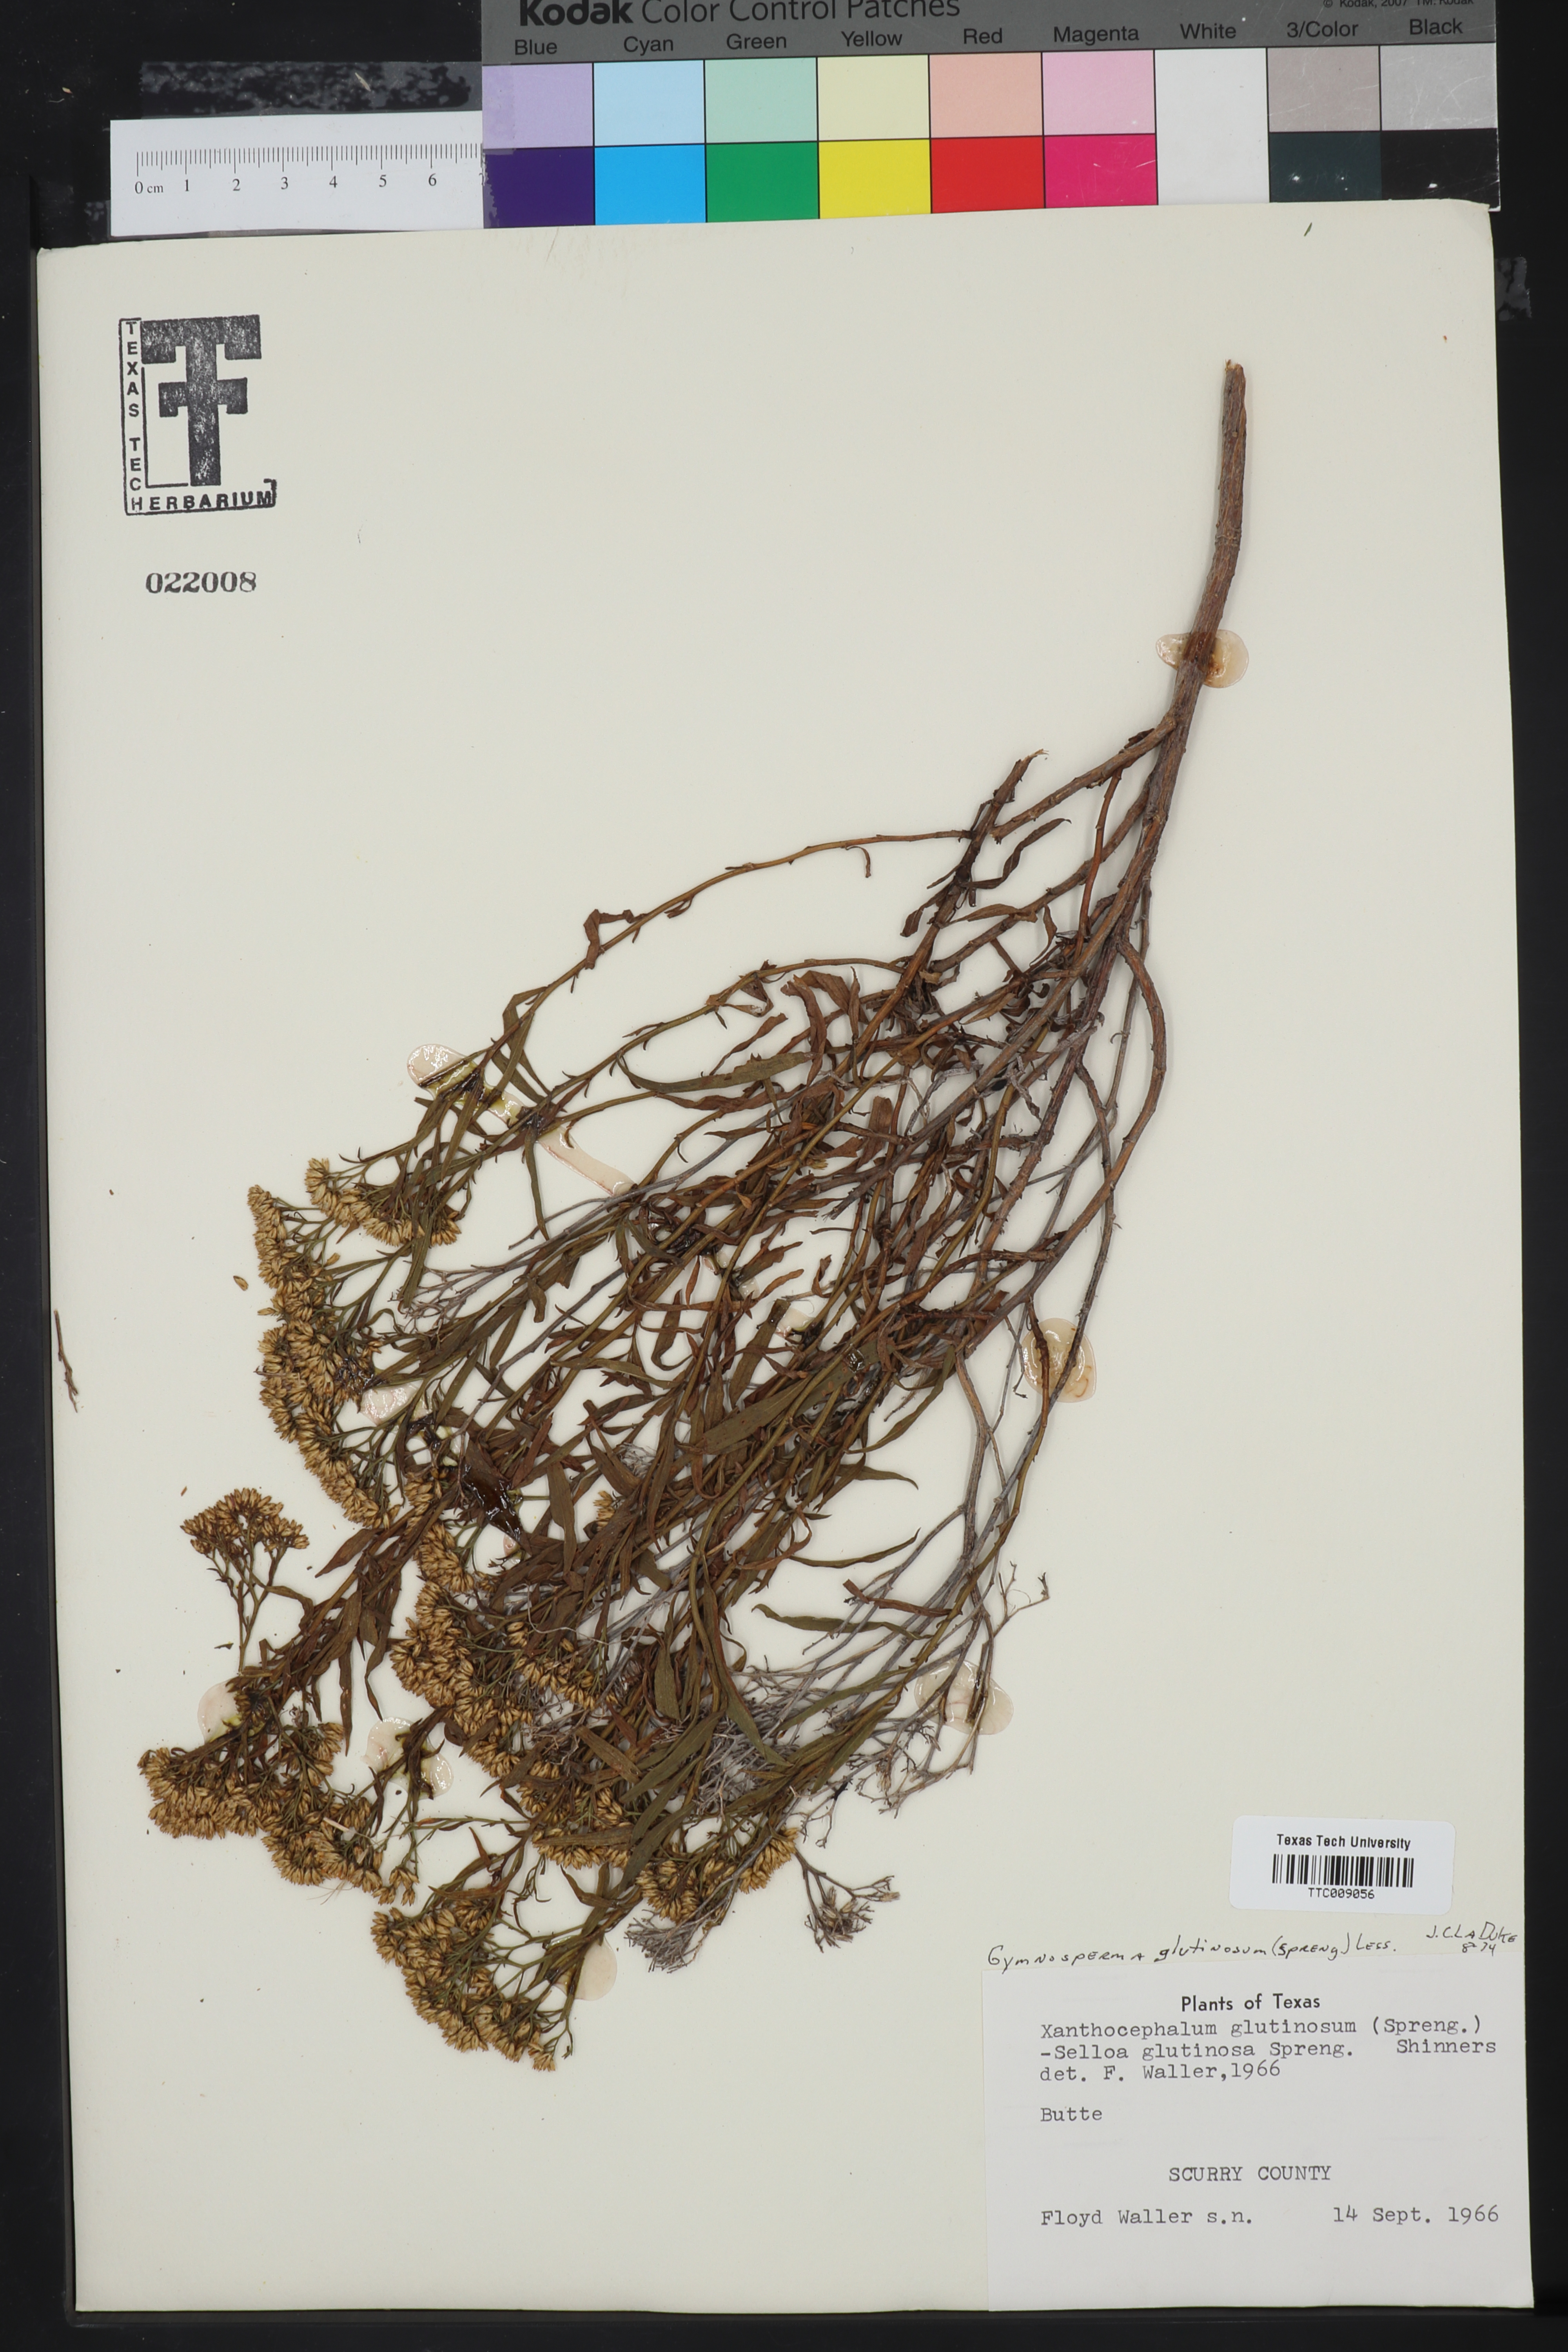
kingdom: Plantae
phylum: Tracheophyta
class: Magnoliopsida
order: Asterales
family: Asteraceae
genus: Gymnosperma
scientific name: Gymnosperma glutinosum
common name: Gumhead
